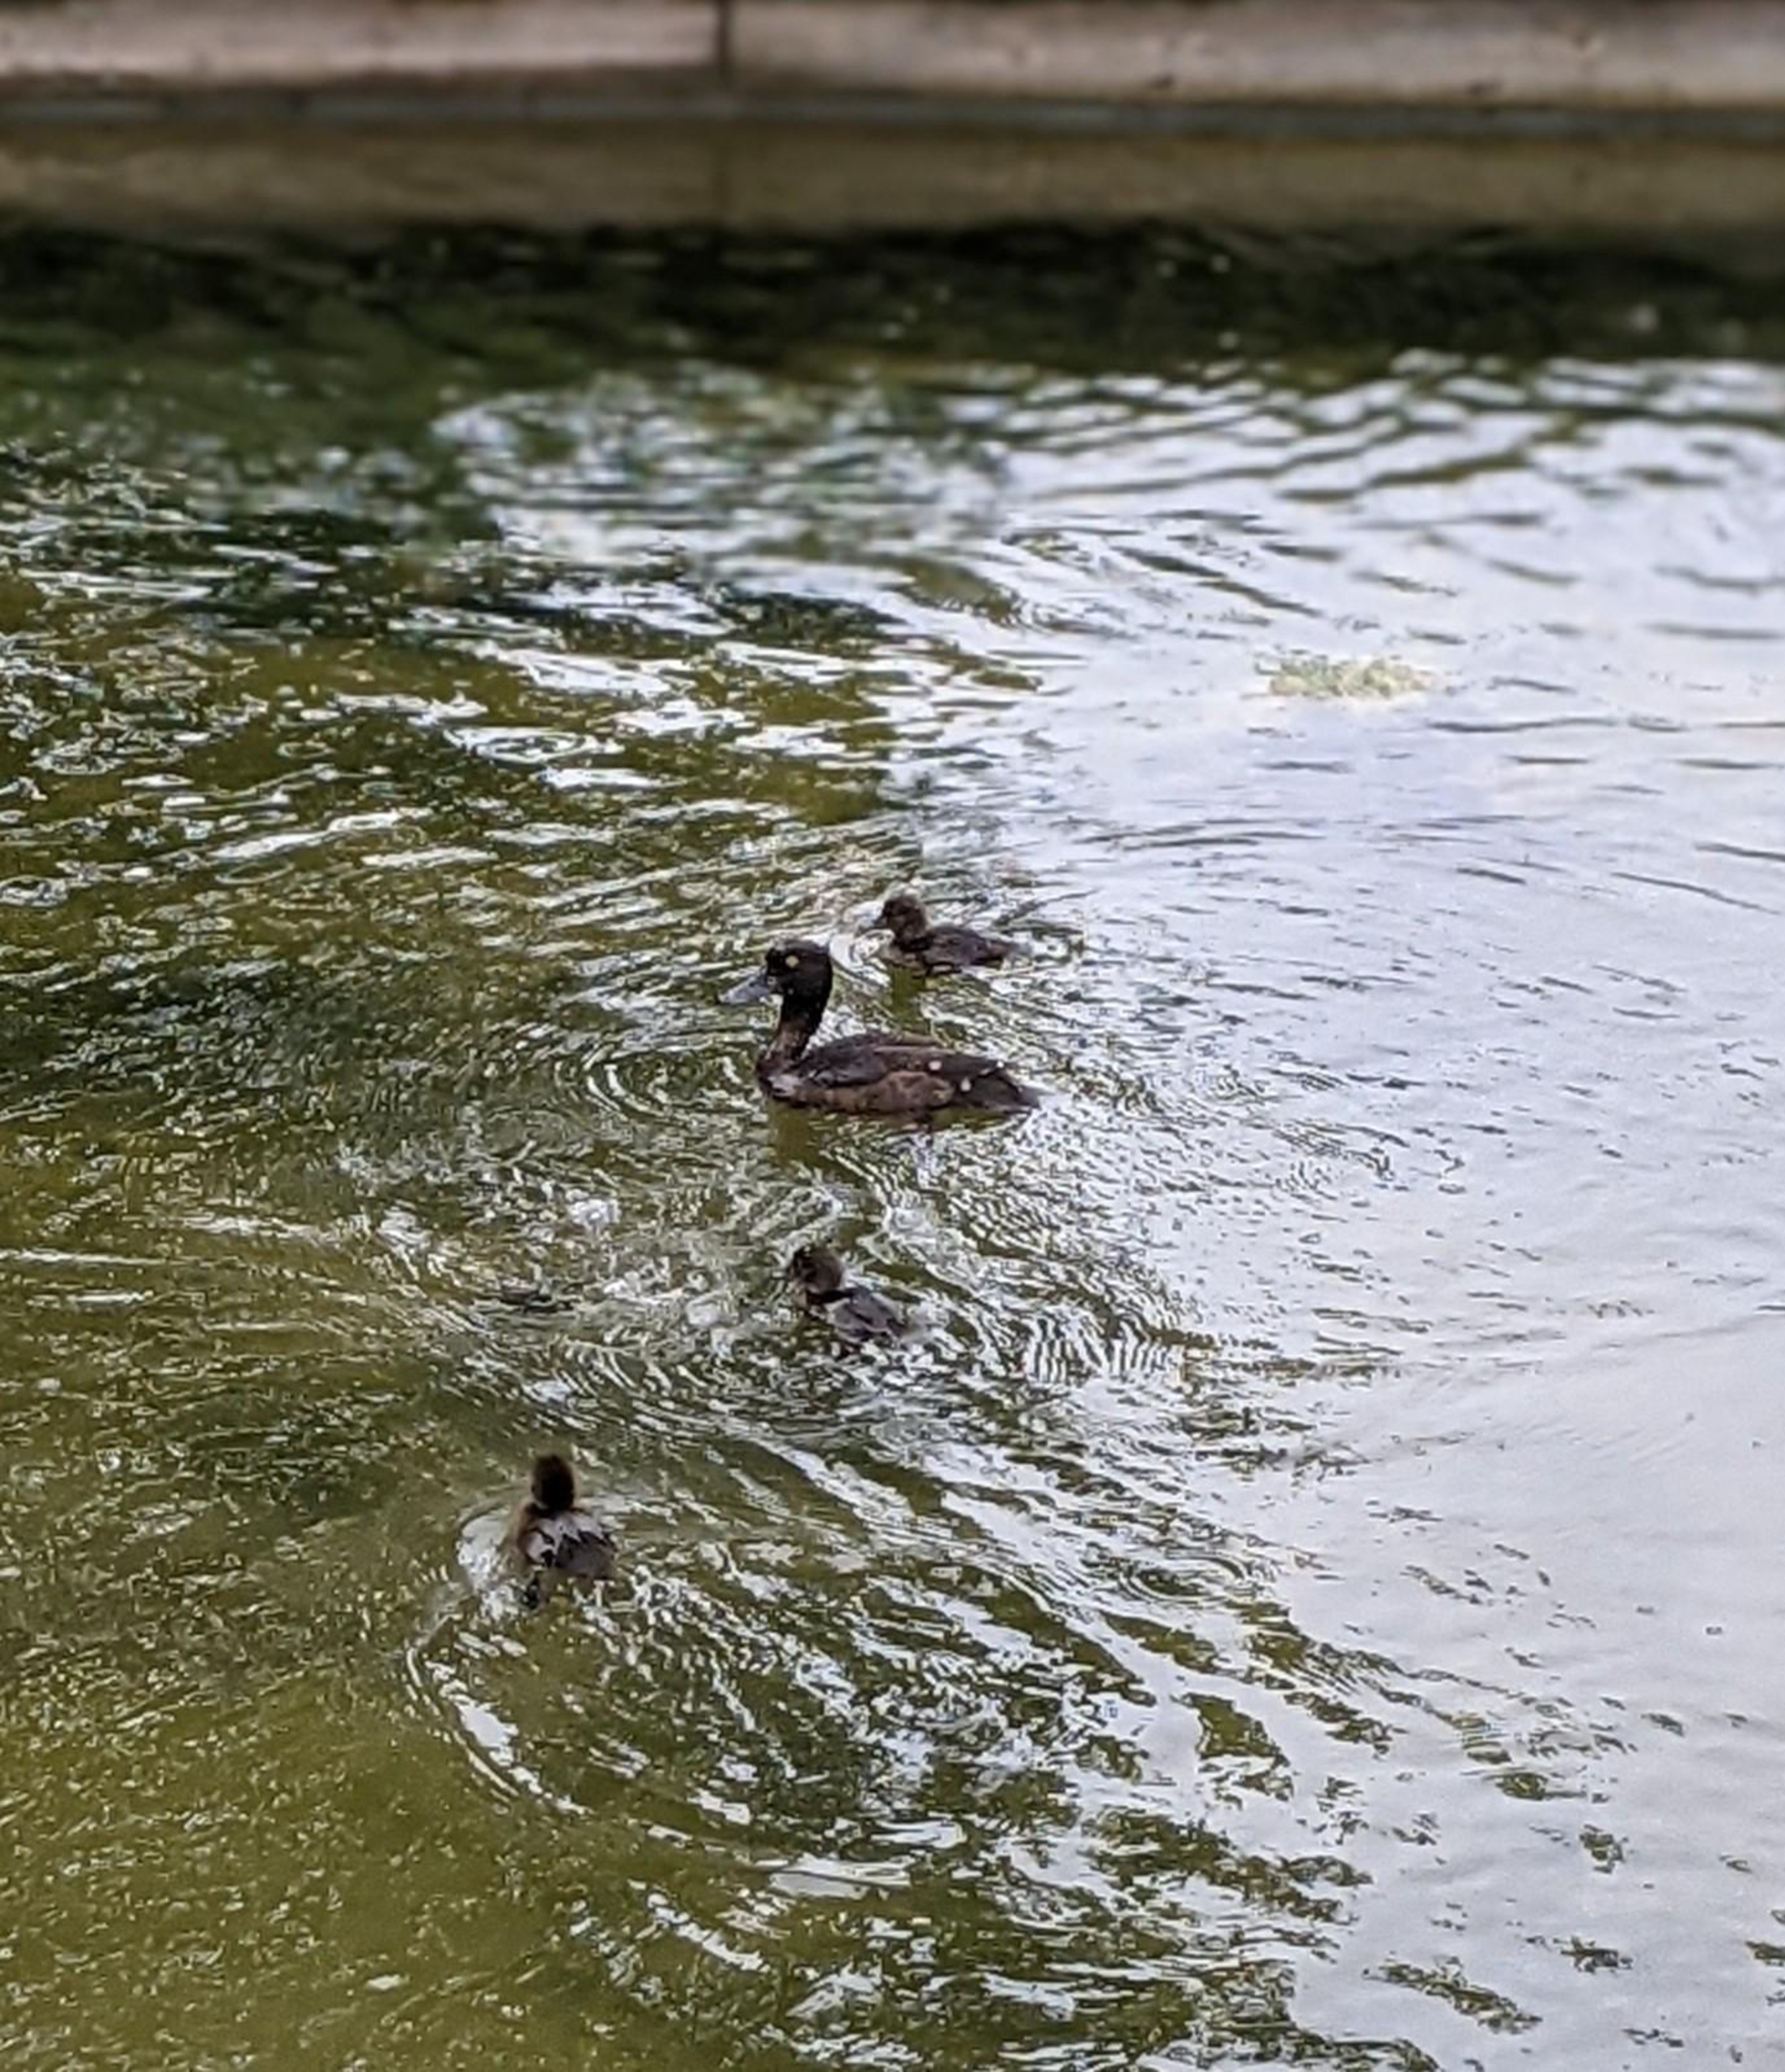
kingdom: Animalia
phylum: Chordata
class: Aves
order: Anseriformes
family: Anatidae
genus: Aythya
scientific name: Aythya fuligula
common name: Troldand
